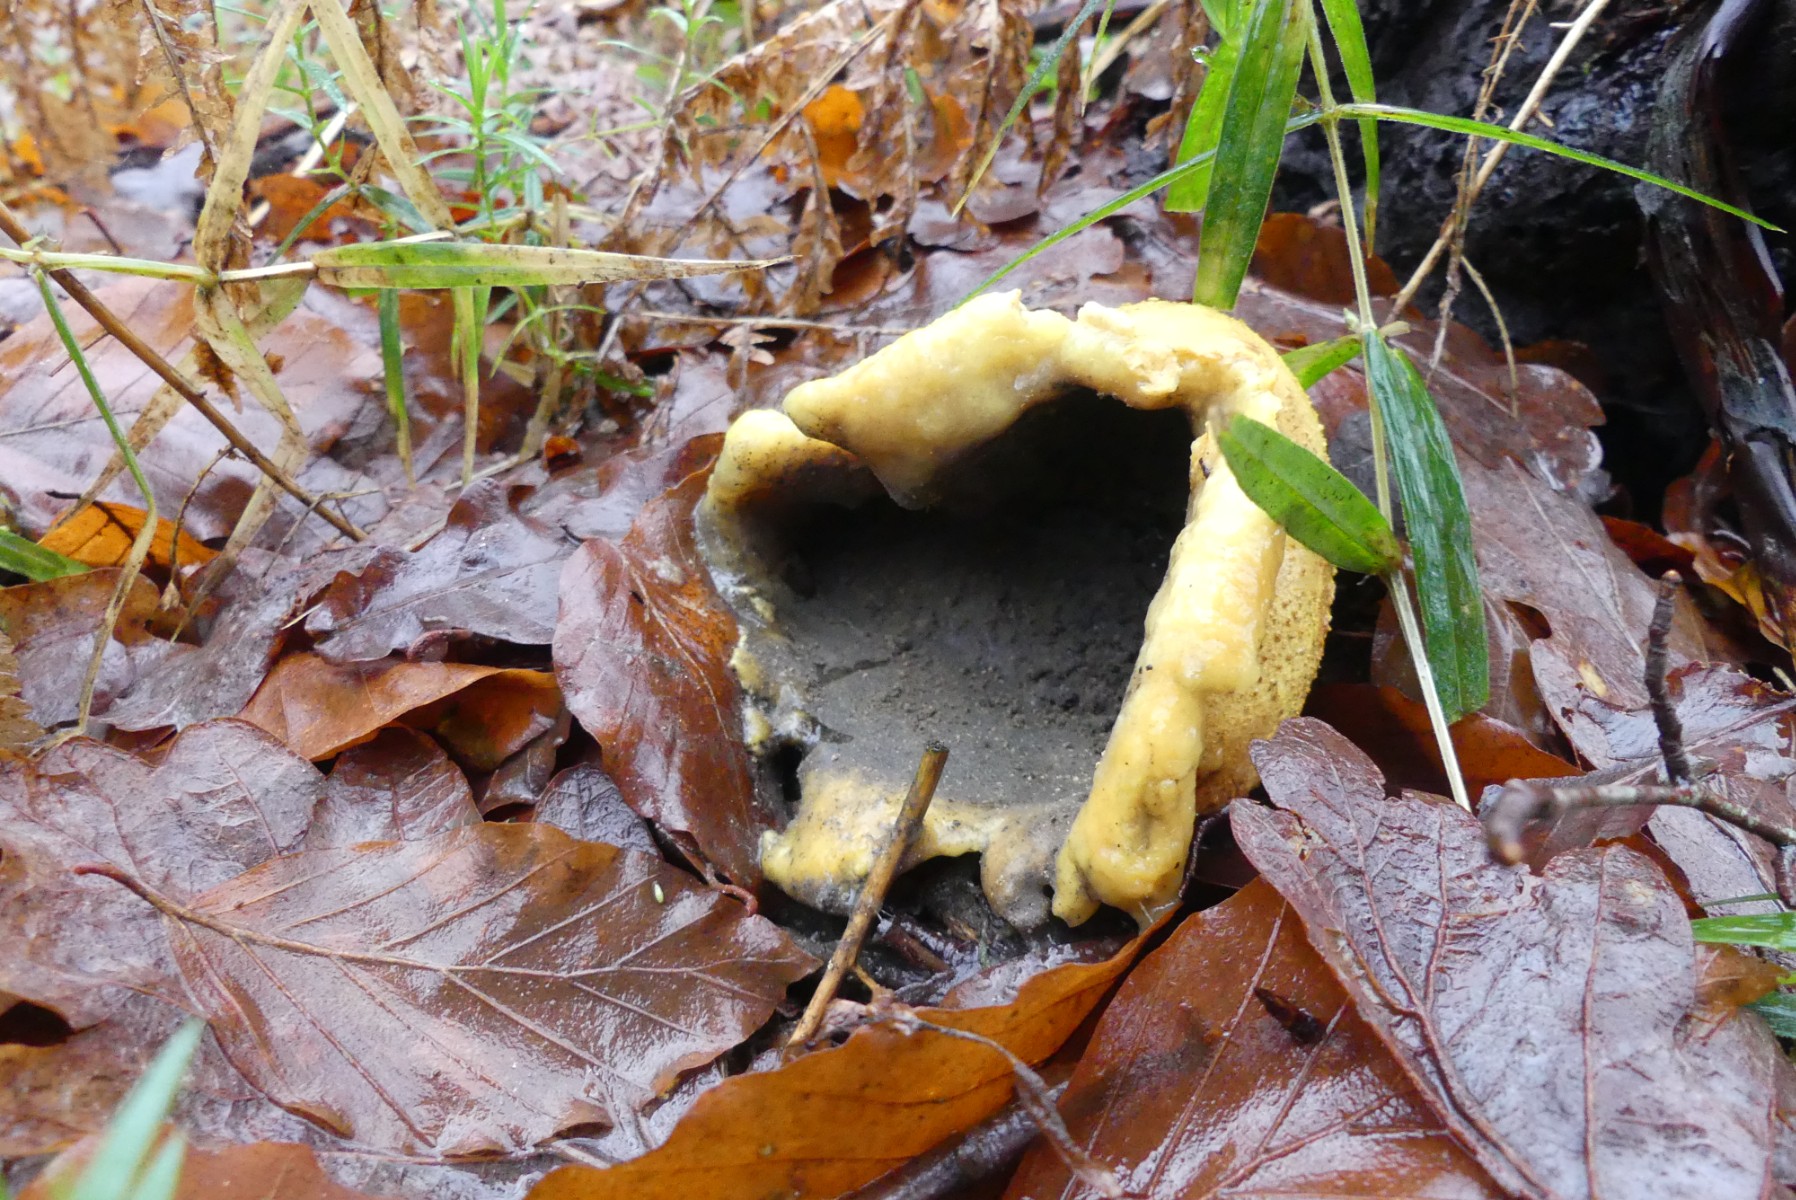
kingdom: Fungi
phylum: Basidiomycota
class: Agaricomycetes
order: Boletales
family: Sclerodermataceae
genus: Scleroderma
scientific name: Scleroderma citrinum
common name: almindelig bruskbold
